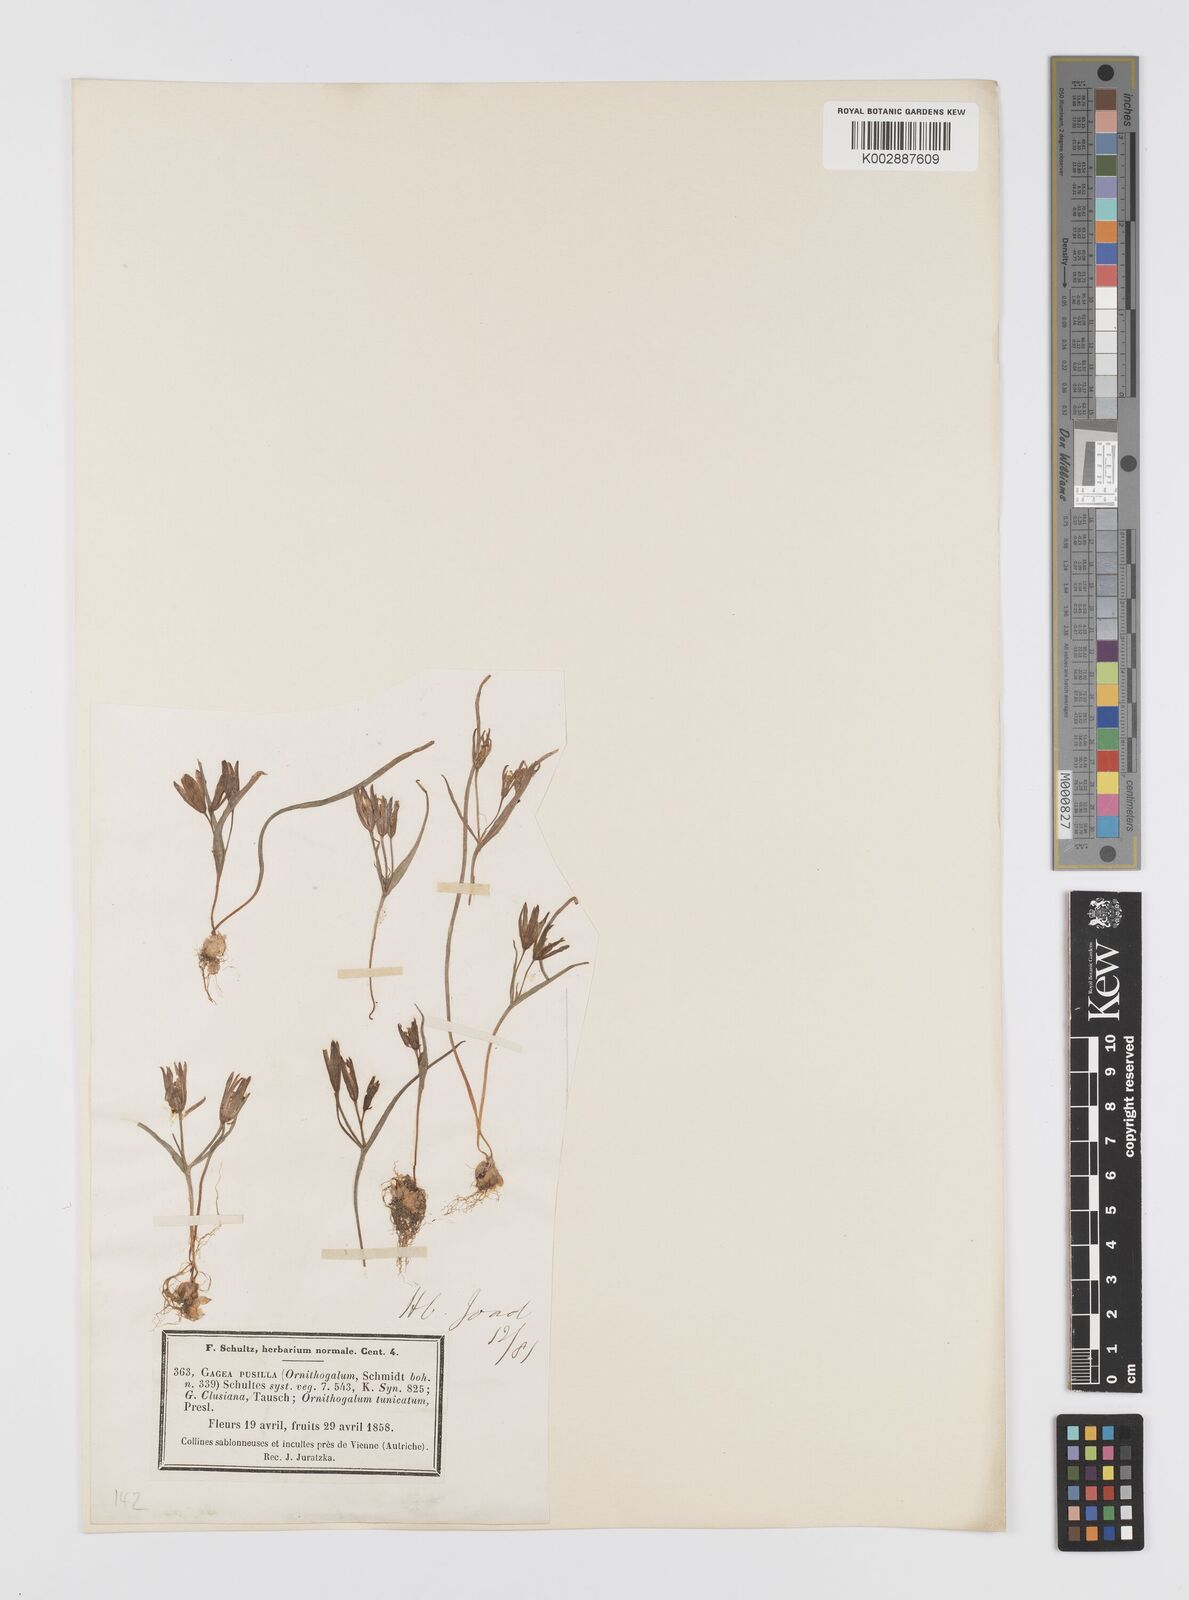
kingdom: Plantae
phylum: Tracheophyta
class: Liliopsida
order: Liliales
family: Liliaceae
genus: Gagea
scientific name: Gagea pusilla
